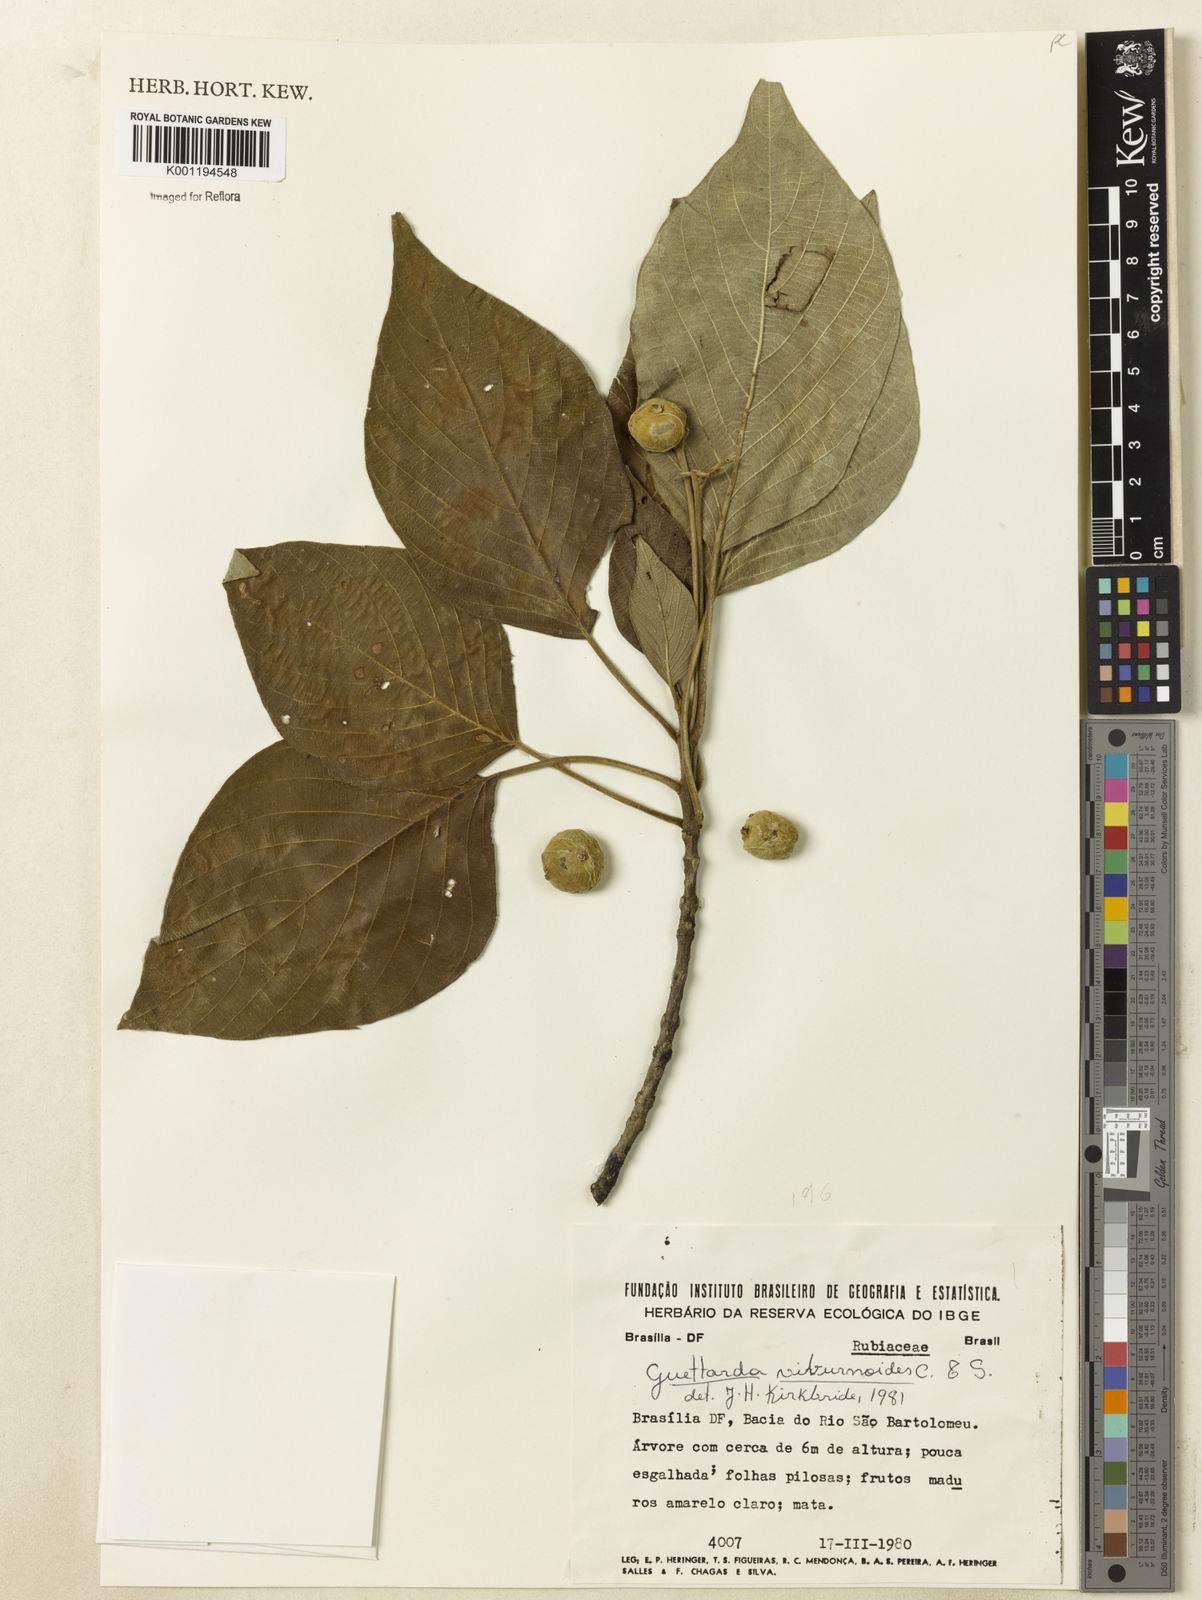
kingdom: Plantae
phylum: Tracheophyta
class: Magnoliopsida
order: Gentianales
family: Rubiaceae
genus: Guettarda
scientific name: Guettarda viburnoides
